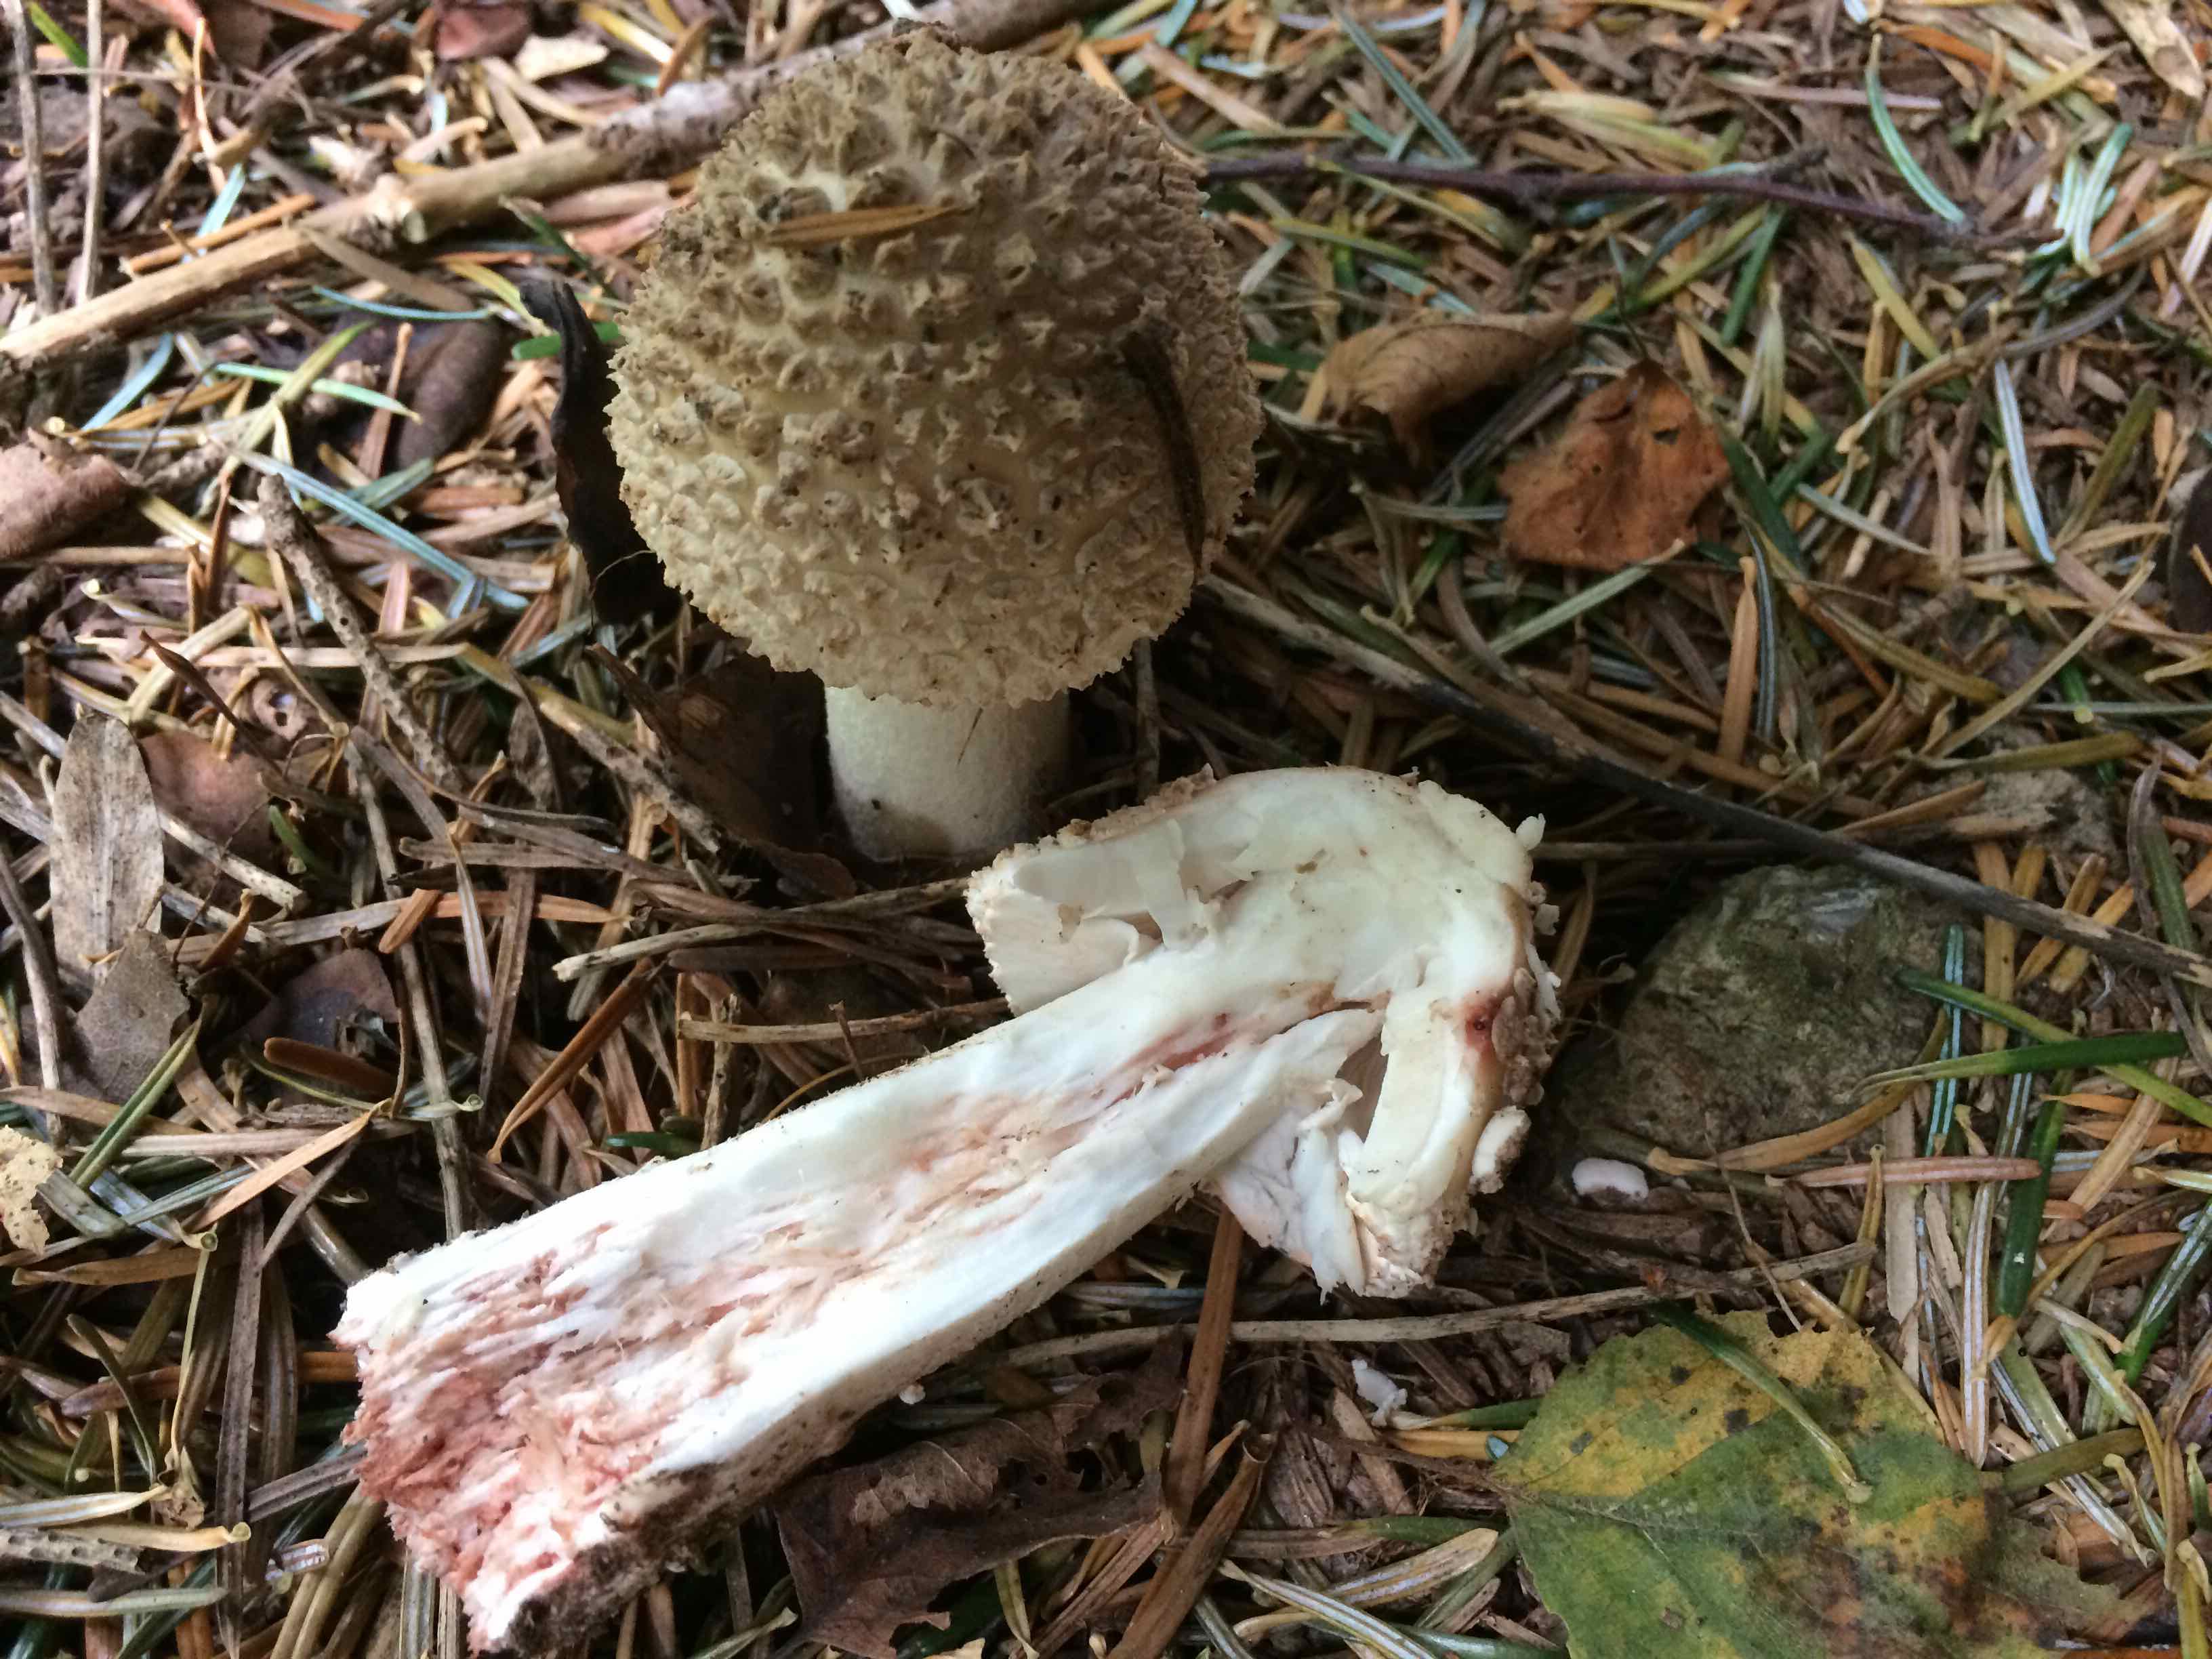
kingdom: Fungi
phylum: Basidiomycota
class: Agaricomycetes
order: Agaricales
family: Amanitaceae
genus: Amanita
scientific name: Amanita rubescens
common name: rødmende fluesvamp
